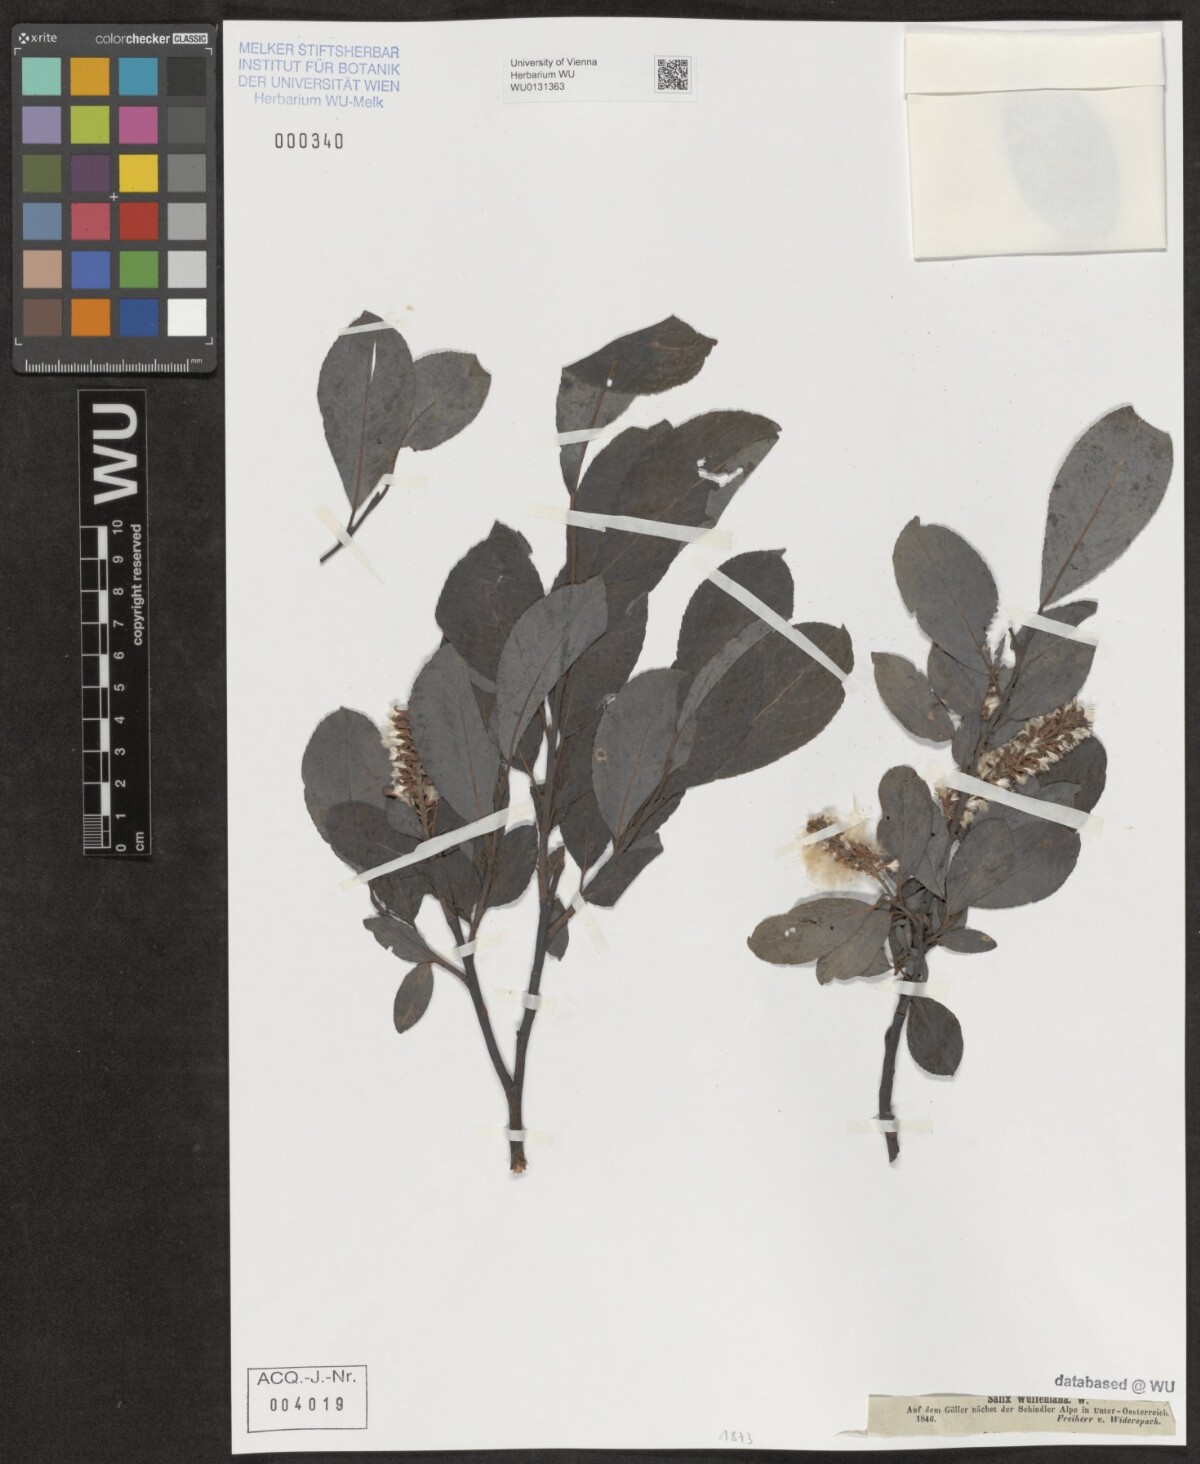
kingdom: Plantae
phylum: Tracheophyta
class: Magnoliopsida
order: Malpighiales
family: Salicaceae
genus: Salix
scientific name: Salix glabra
